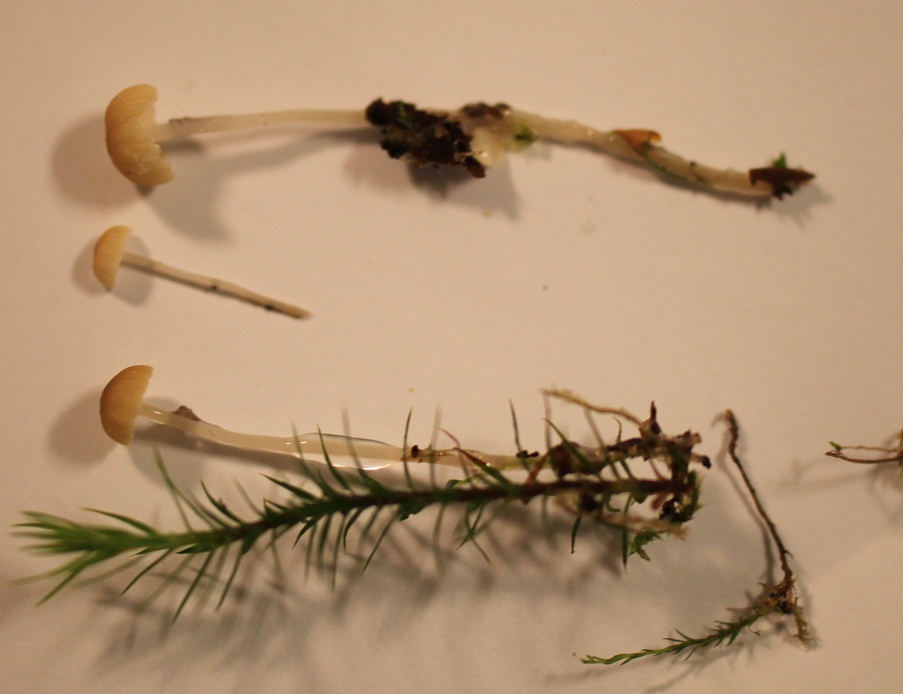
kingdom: Fungi
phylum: Basidiomycota
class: Agaricomycetes
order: Agaricales
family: Mycenaceae
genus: Roridomyces
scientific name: Roridomyces roridus
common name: slimfod
